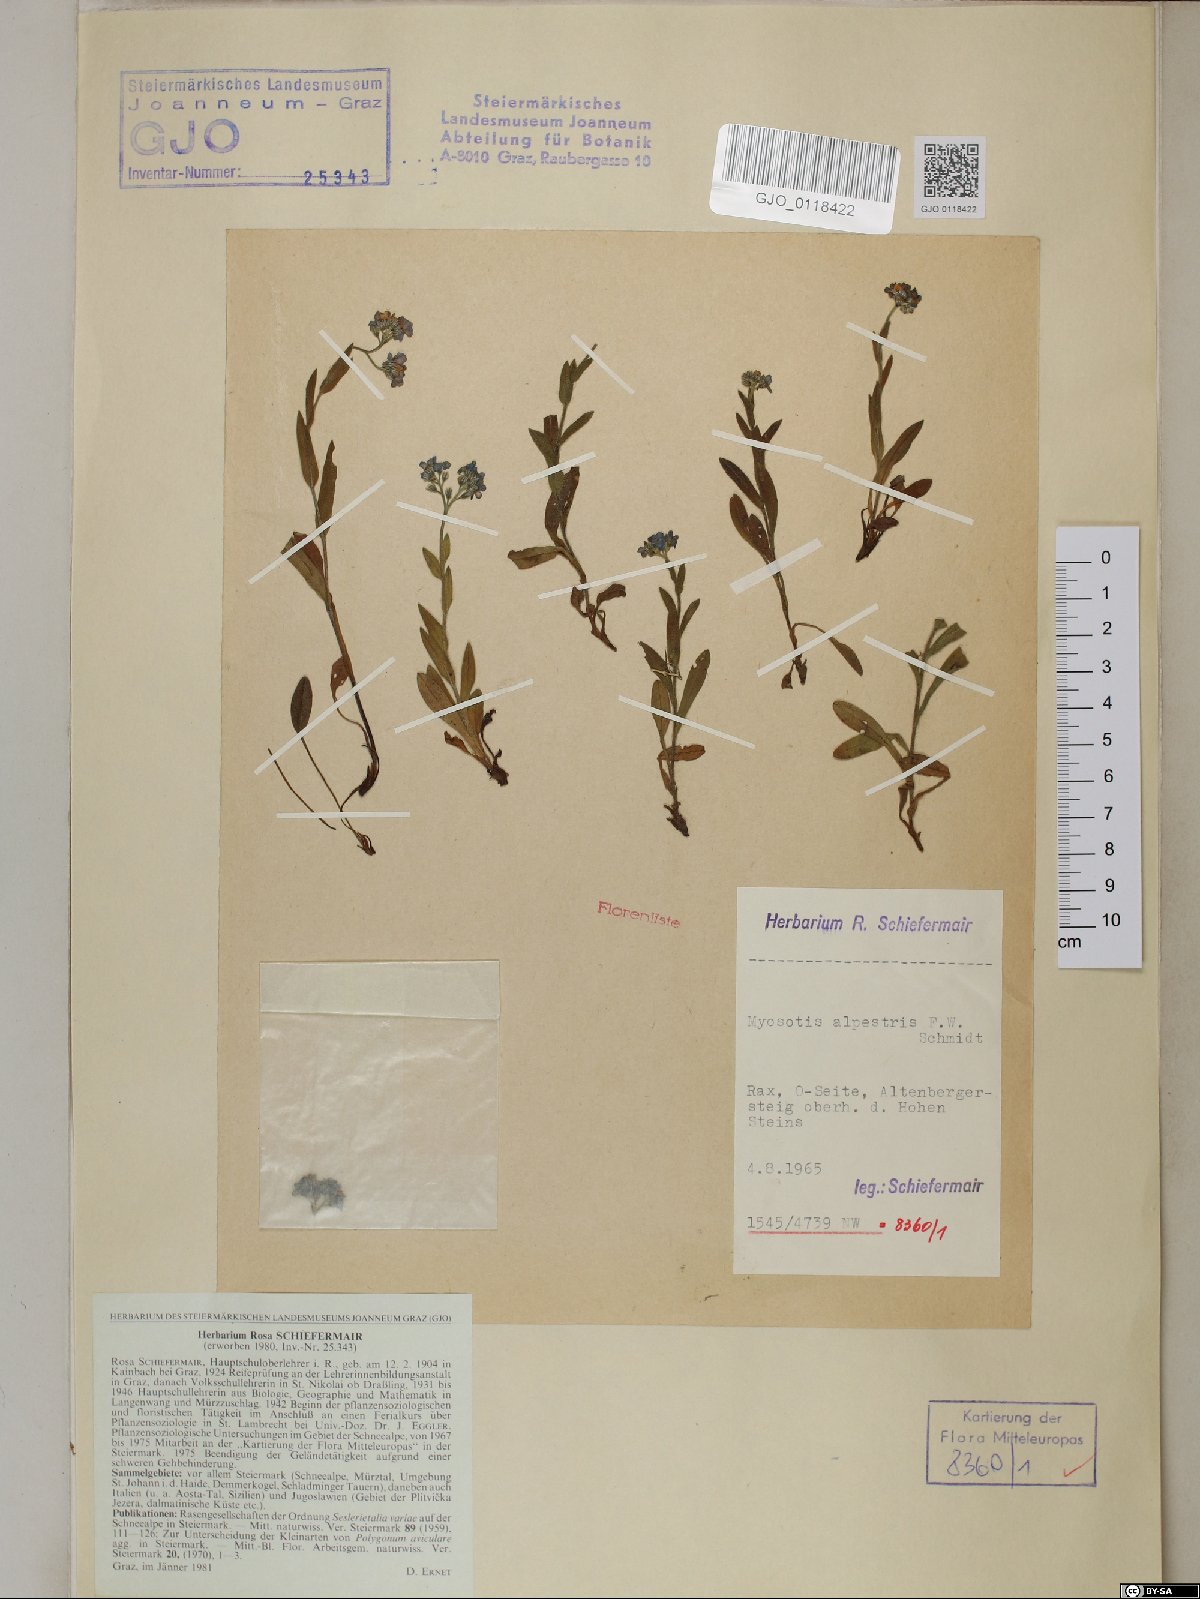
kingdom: Plantae
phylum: Tracheophyta
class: Magnoliopsida
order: Boraginales
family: Boraginaceae
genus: Myosotis
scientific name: Myosotis alpestris
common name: Alpine forget-me-not
